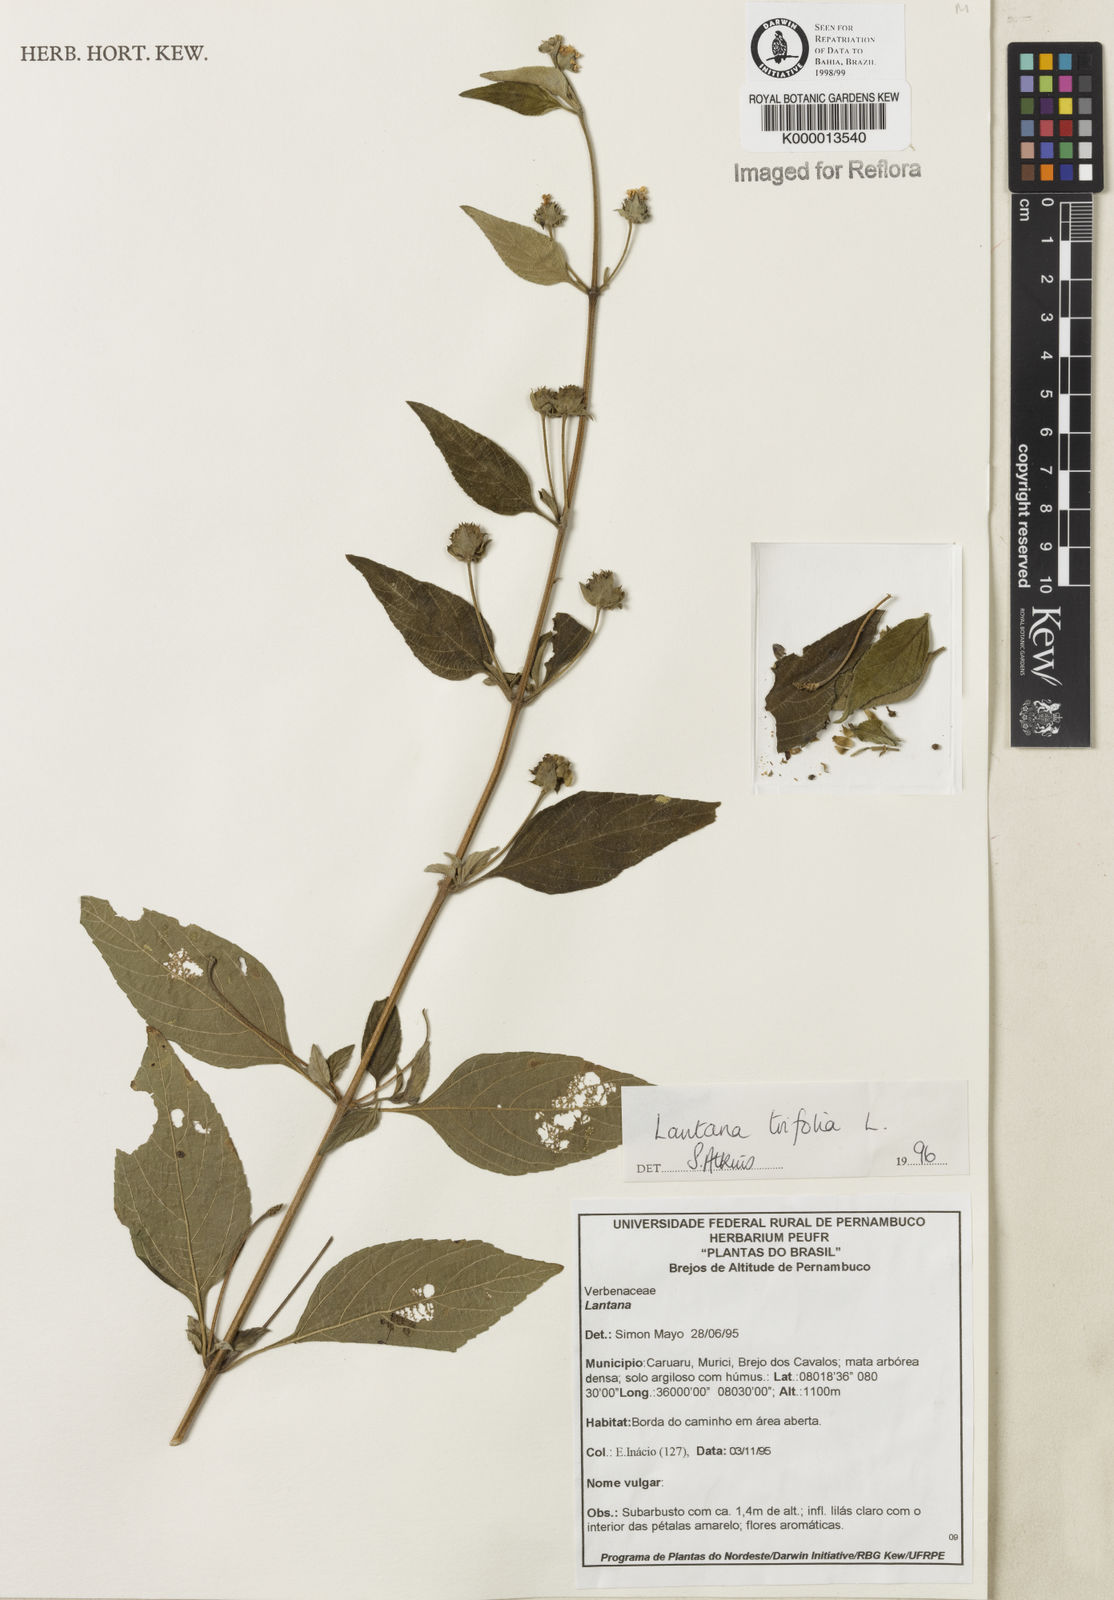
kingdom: Plantae
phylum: Tracheophyta
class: Magnoliopsida
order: Lamiales
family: Verbenaceae
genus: Lantana
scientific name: Lantana trifolia
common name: Sweet-sage
